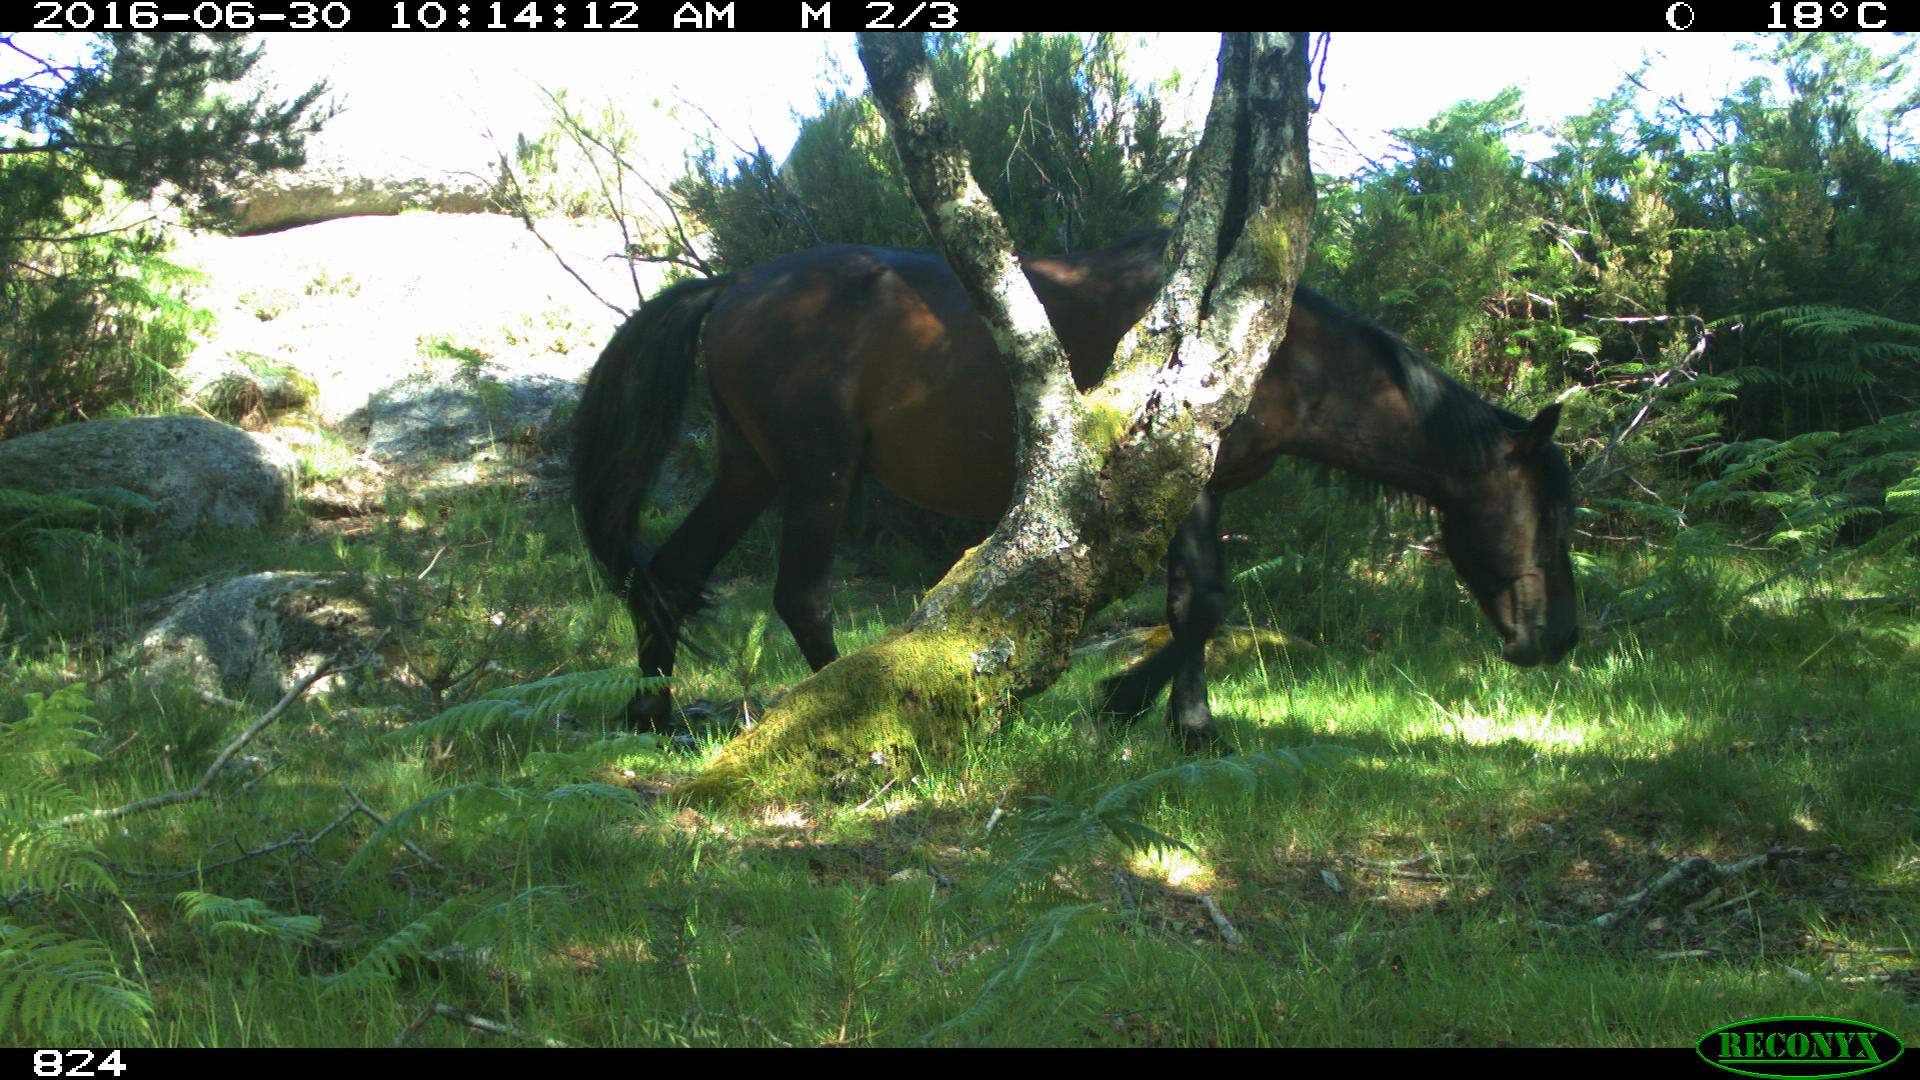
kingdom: Animalia
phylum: Chordata
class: Mammalia
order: Perissodactyla
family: Equidae
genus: Equus
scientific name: Equus caballus
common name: Horse
